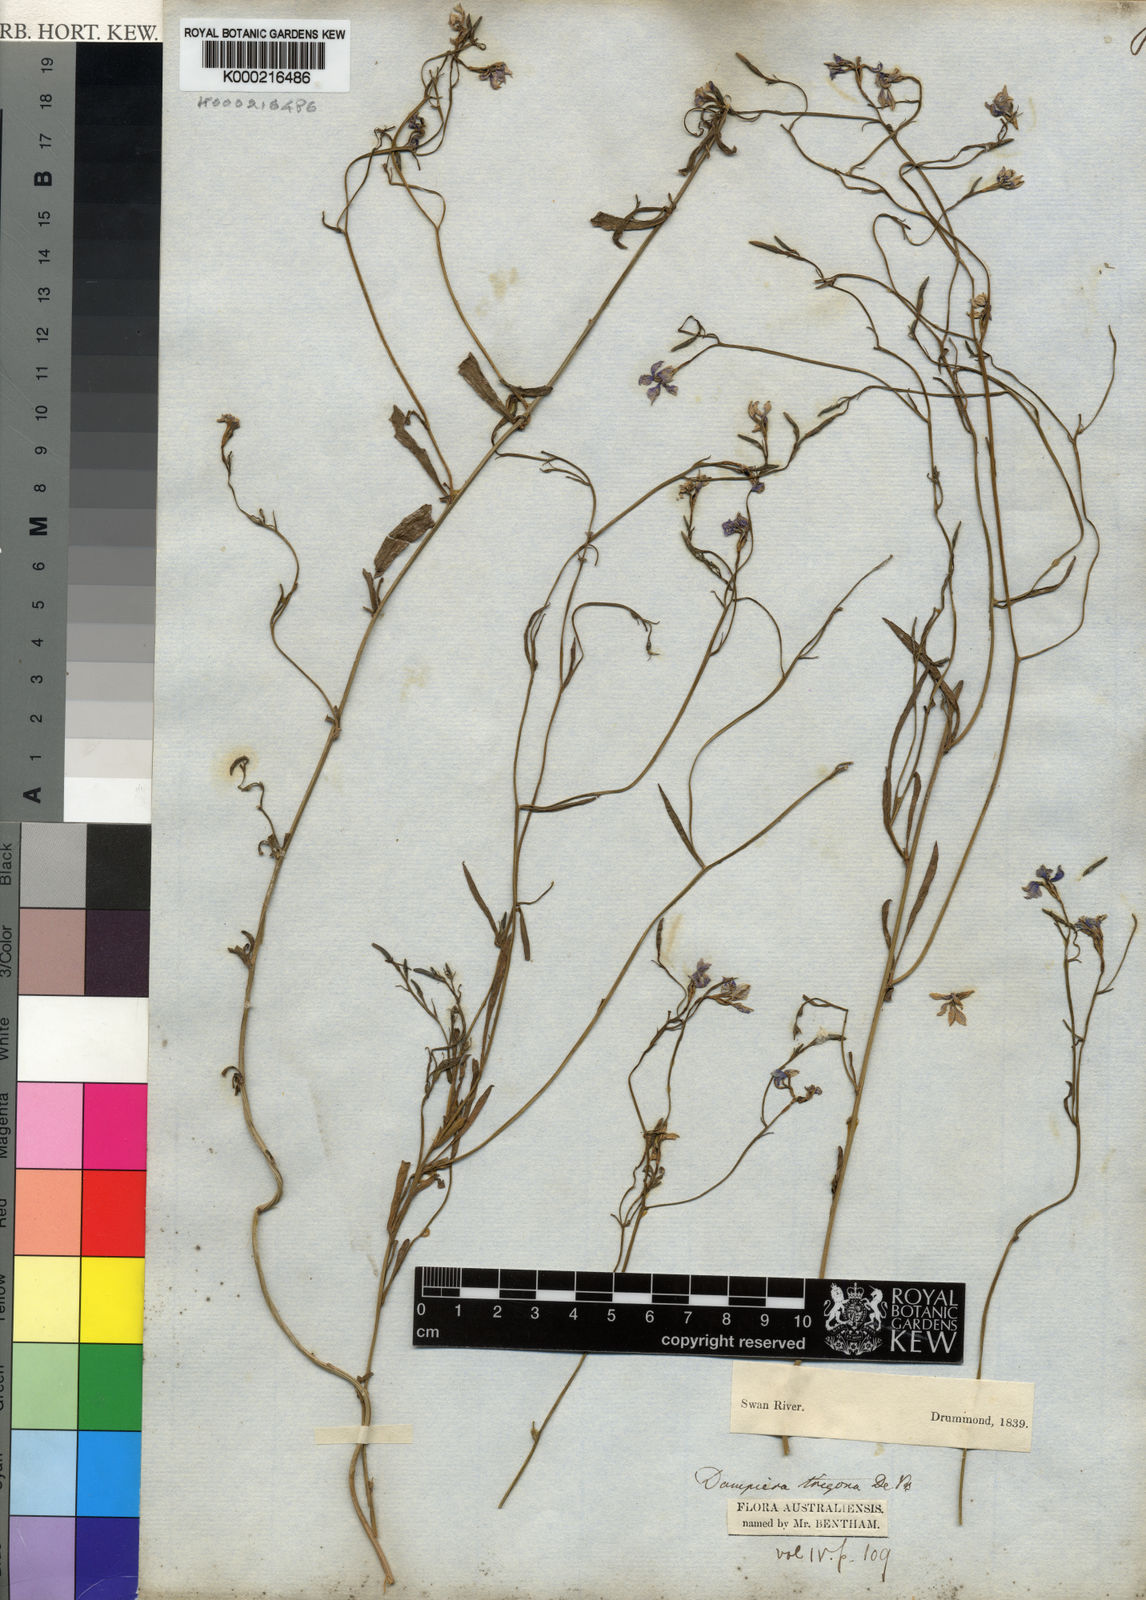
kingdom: Plantae
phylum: Tracheophyta
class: Magnoliopsida
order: Asterales
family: Goodeniaceae
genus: Dampiera
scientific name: Dampiera trigona
